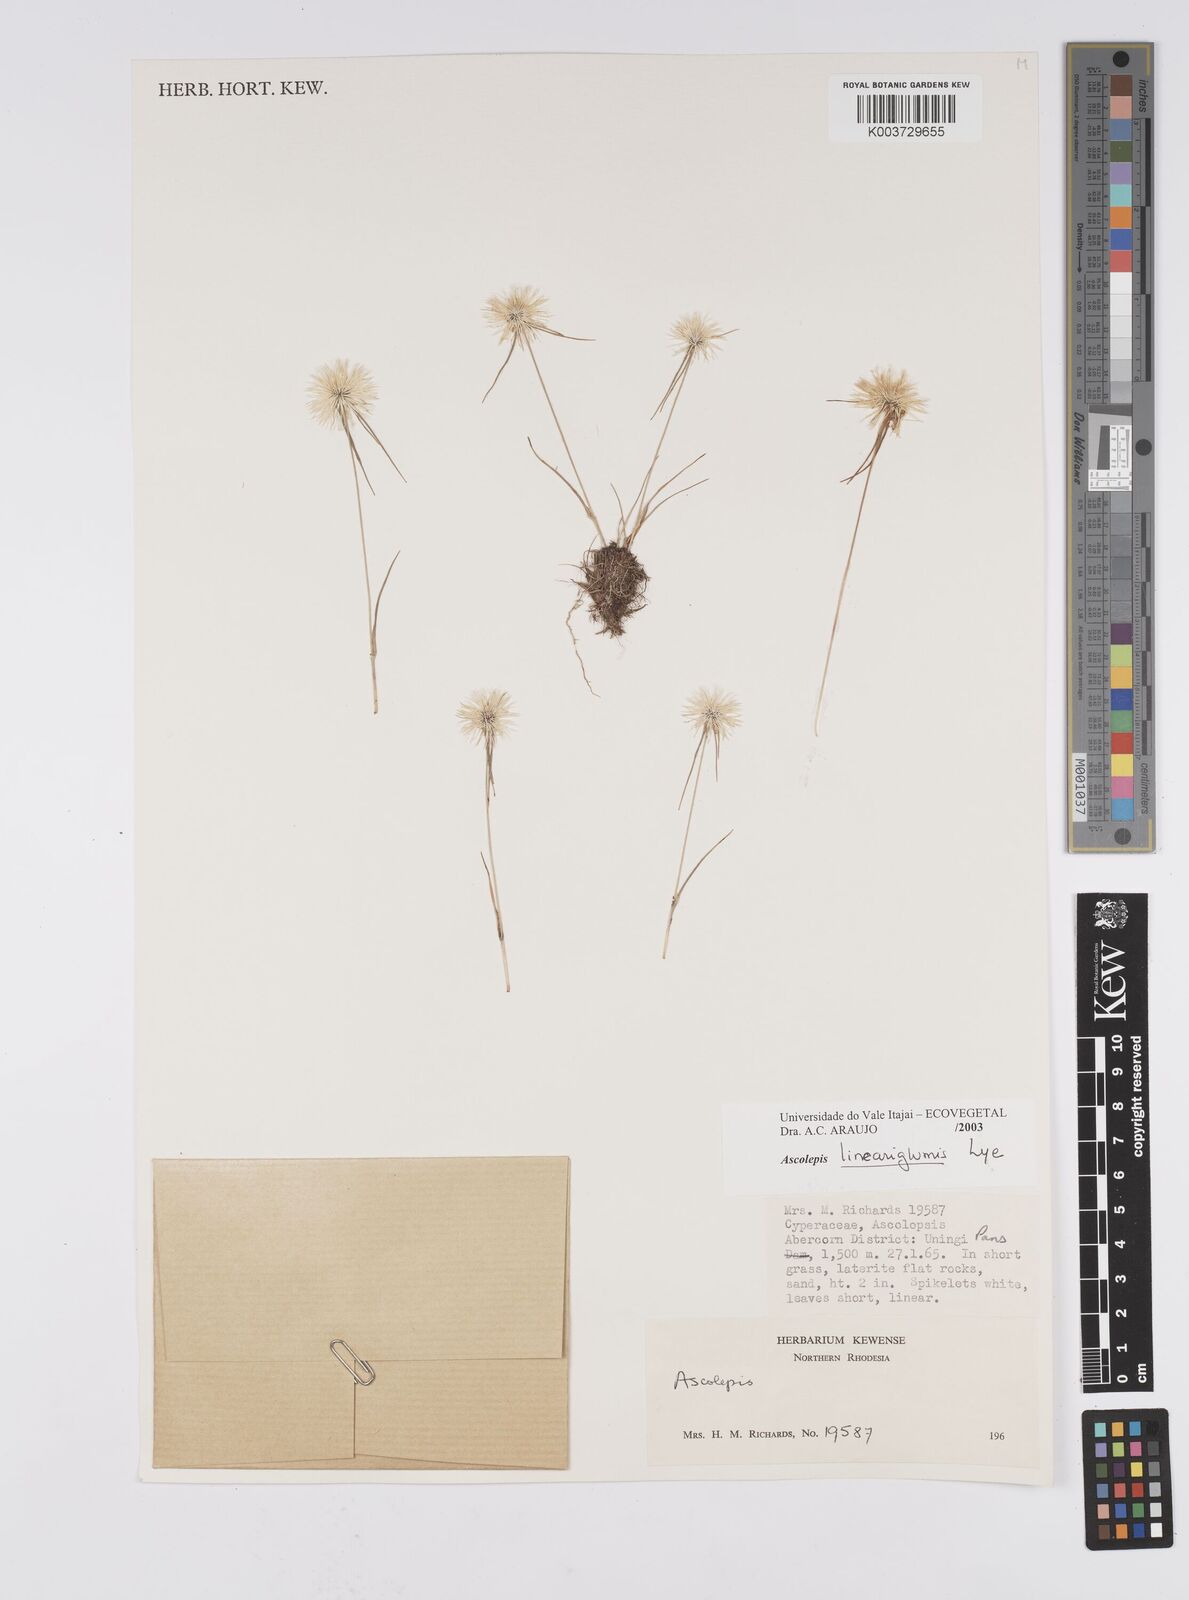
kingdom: Plantae
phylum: Tracheophyta
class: Liliopsida
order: Poales
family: Cyperaceae
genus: Cyperus
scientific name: Cyperus
